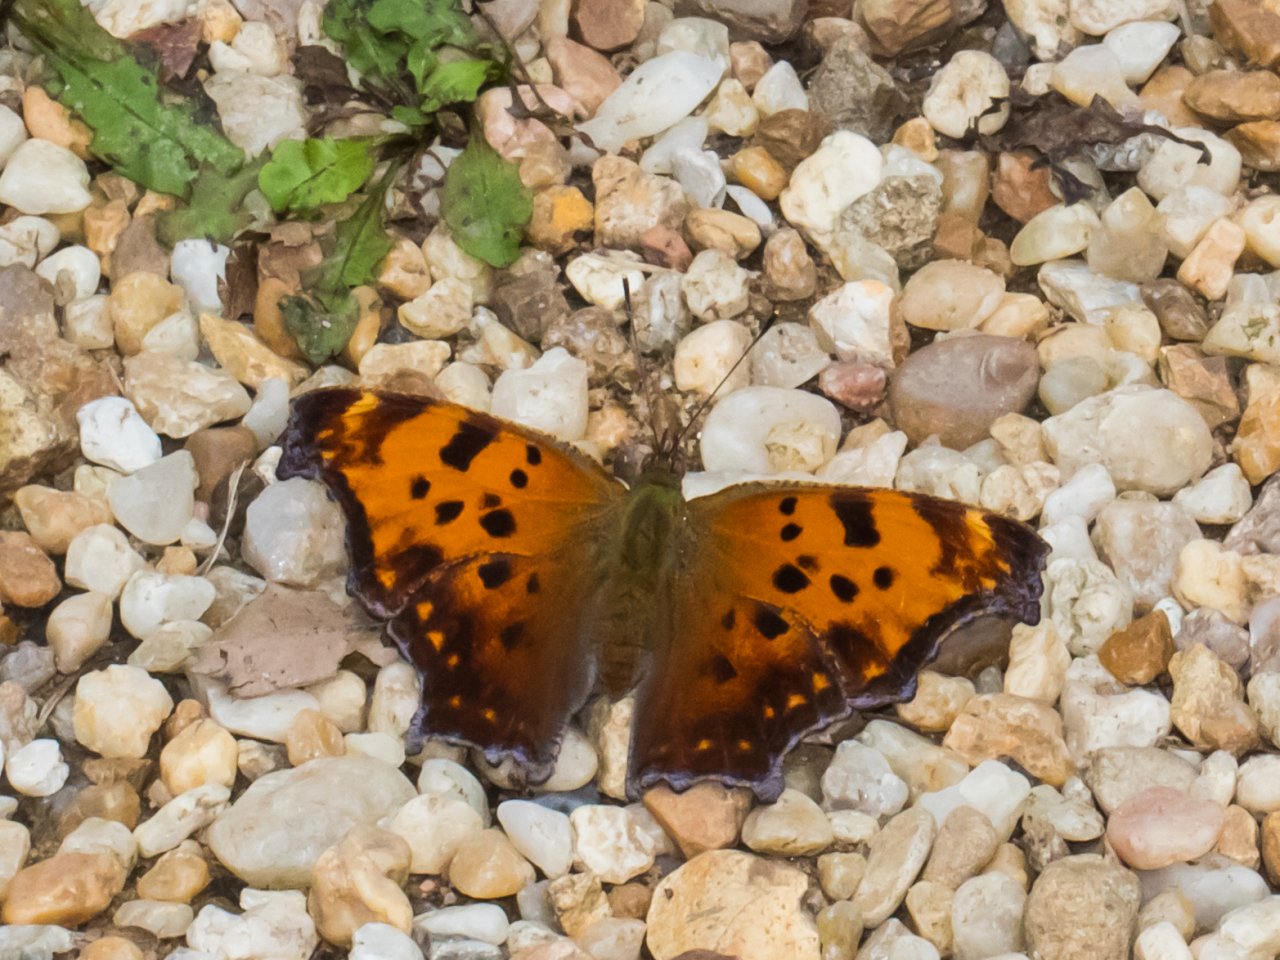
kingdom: Animalia
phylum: Arthropoda
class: Insecta
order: Lepidoptera
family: Nymphalidae
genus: Polygonia
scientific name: Polygonia comma
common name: Eastern Comma
